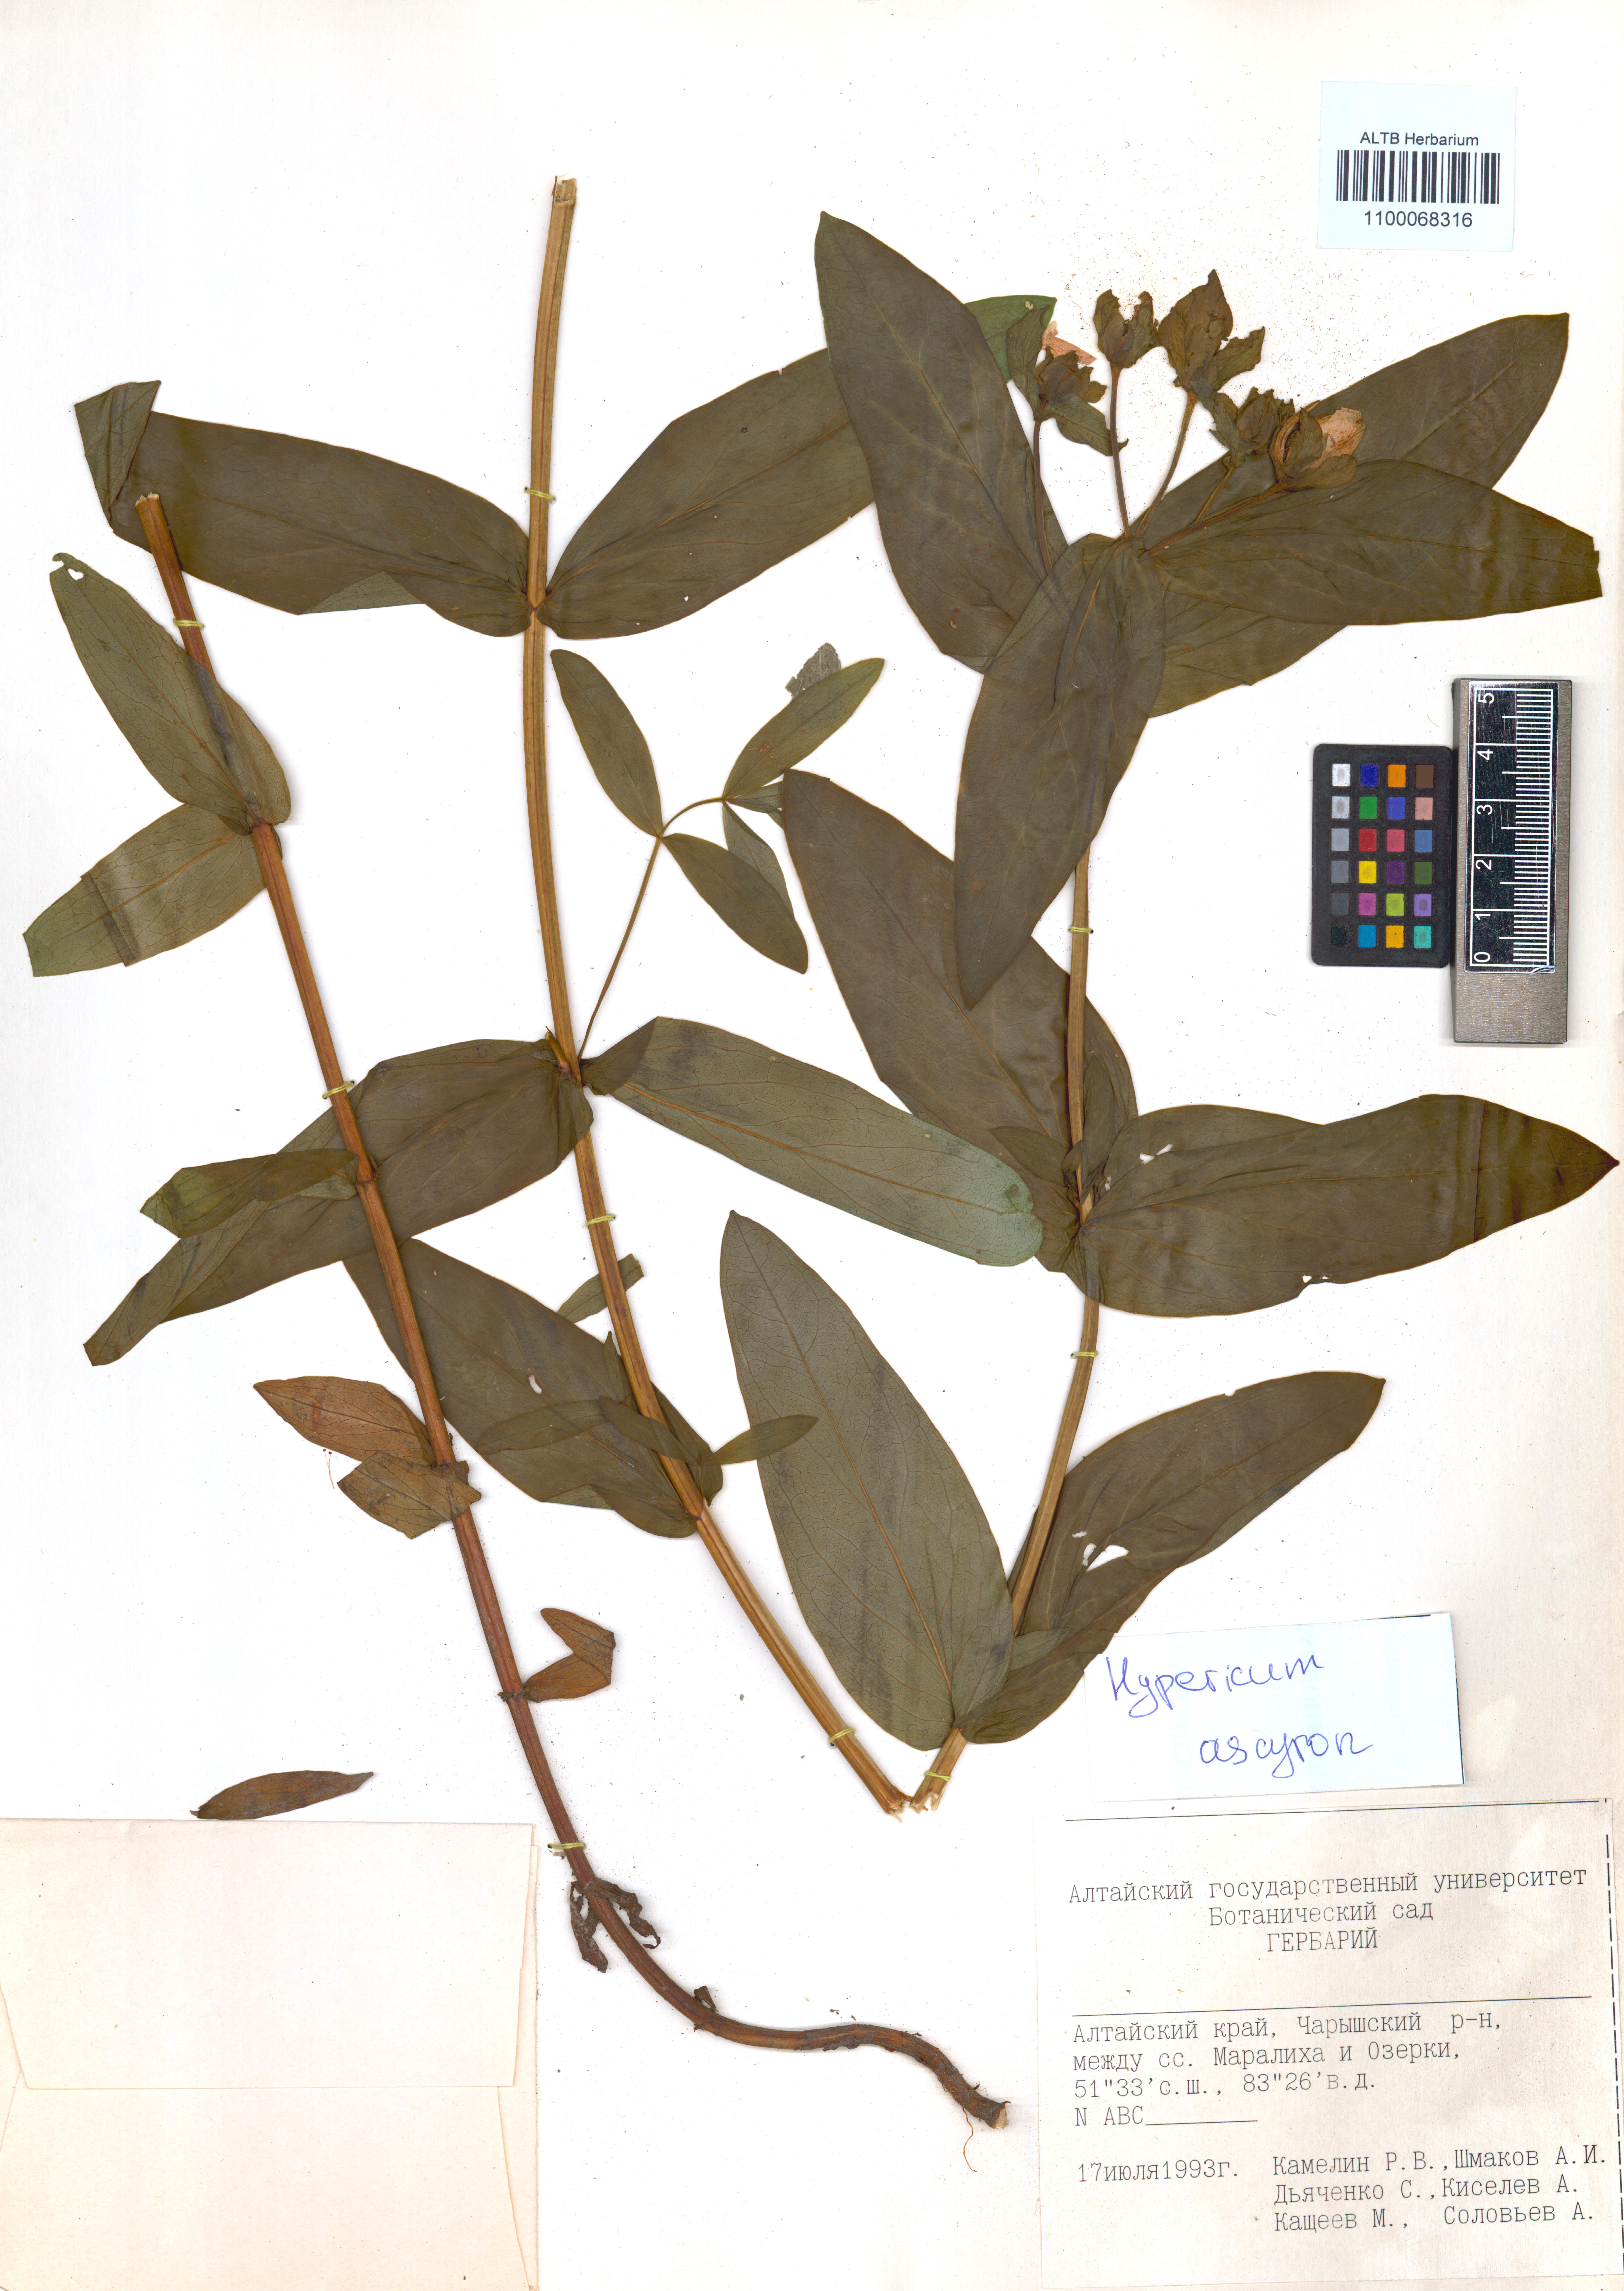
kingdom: Plantae
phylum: Tracheophyta
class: Magnoliopsida
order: Malpighiales
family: Hypericaceae
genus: Hypericum
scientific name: Hypericum ascyron
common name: Giant st. john's-wort
